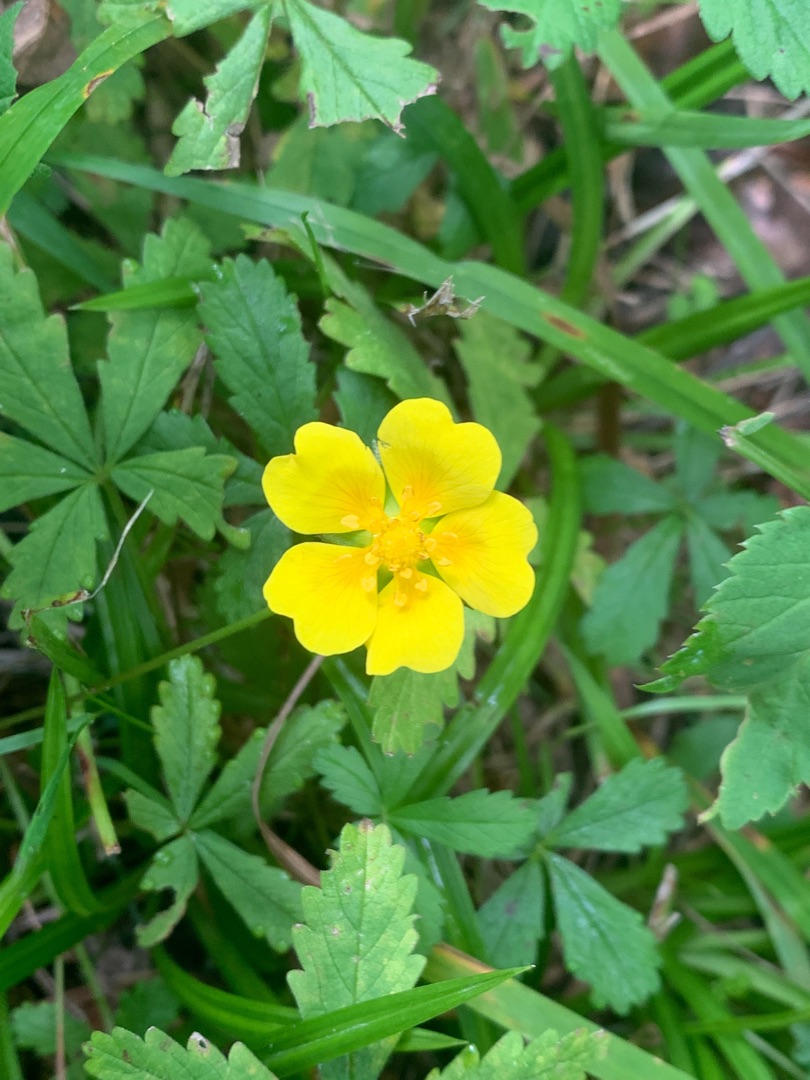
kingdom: Plantae
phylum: Tracheophyta
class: Magnoliopsida
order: Rosales
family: Rosaceae
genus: Potentilla
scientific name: Potentilla reptans
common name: Krybende potentil
